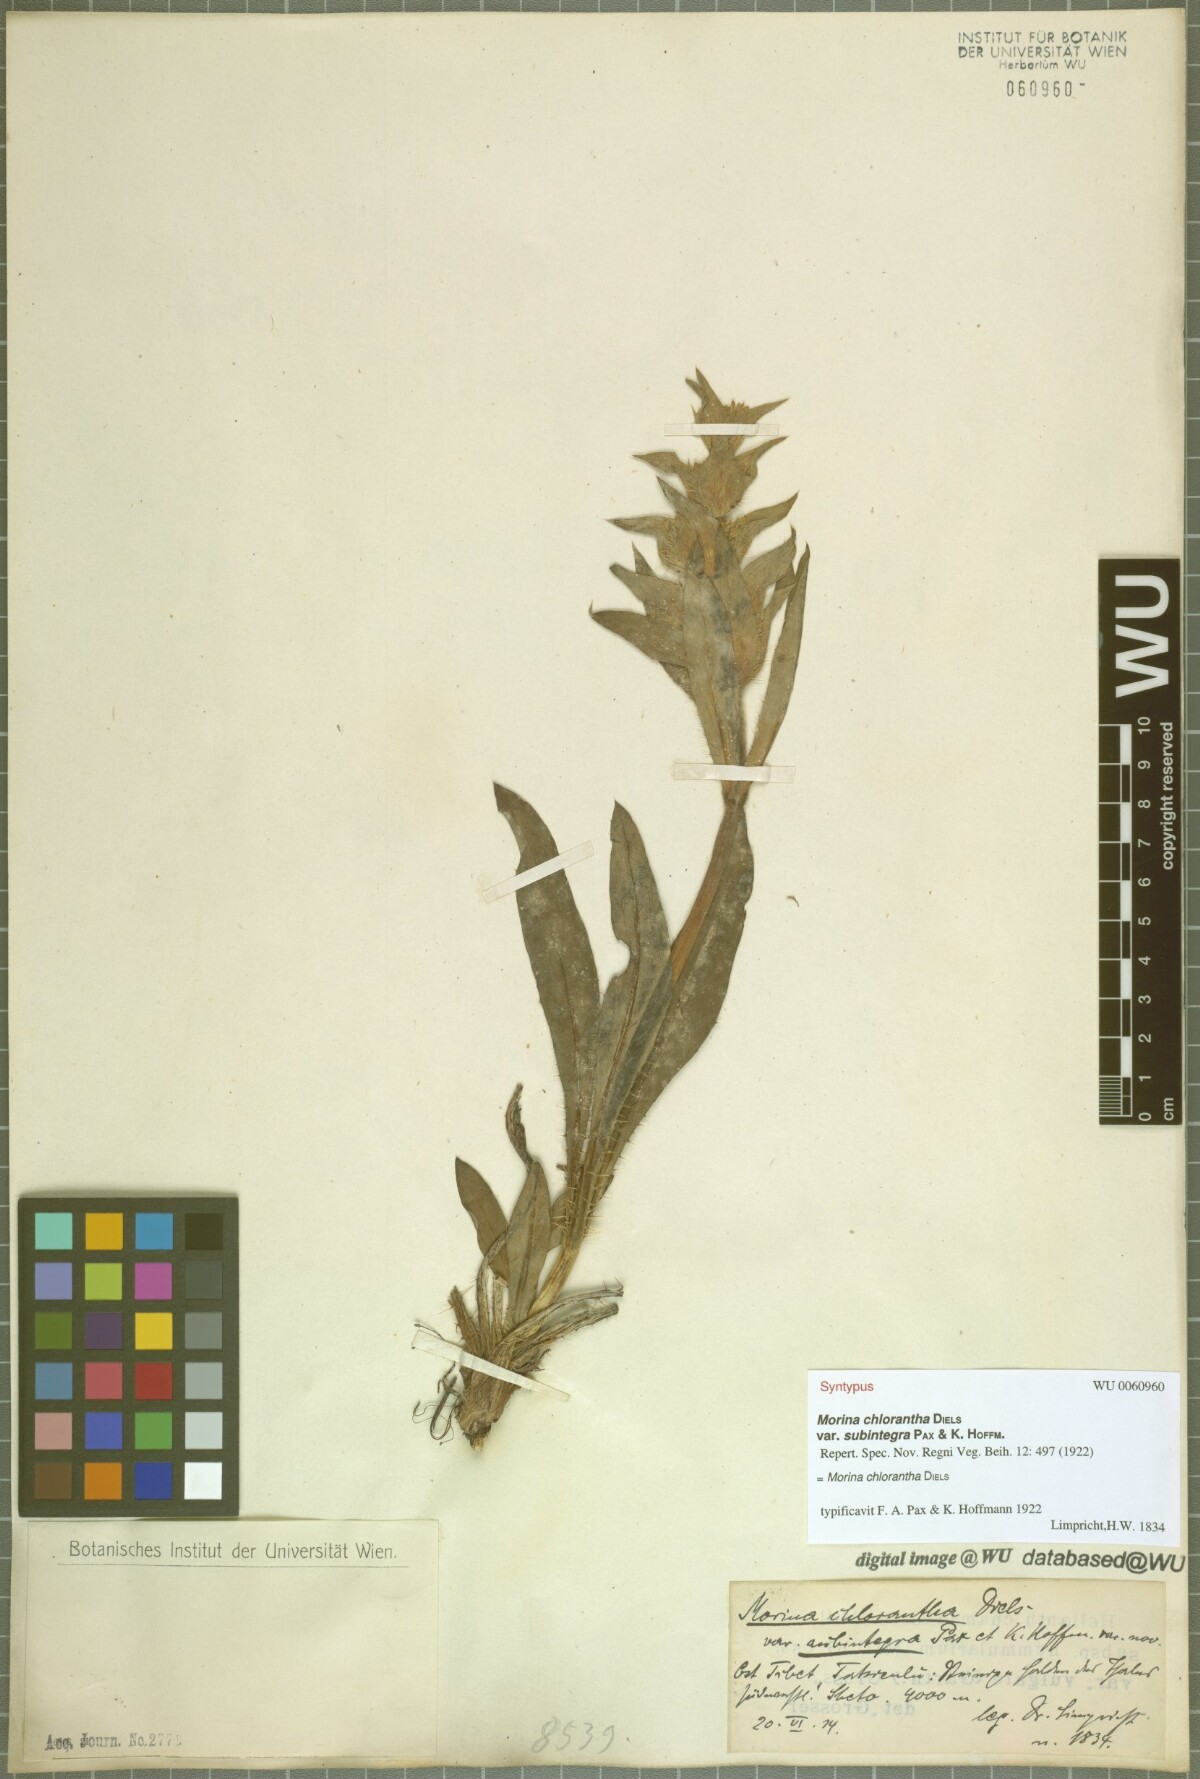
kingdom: Plantae
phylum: Tracheophyta
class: Magnoliopsida
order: Dipsacales
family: Caprifoliaceae
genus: Cryptothladia
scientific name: Cryptothladia chlorantha
